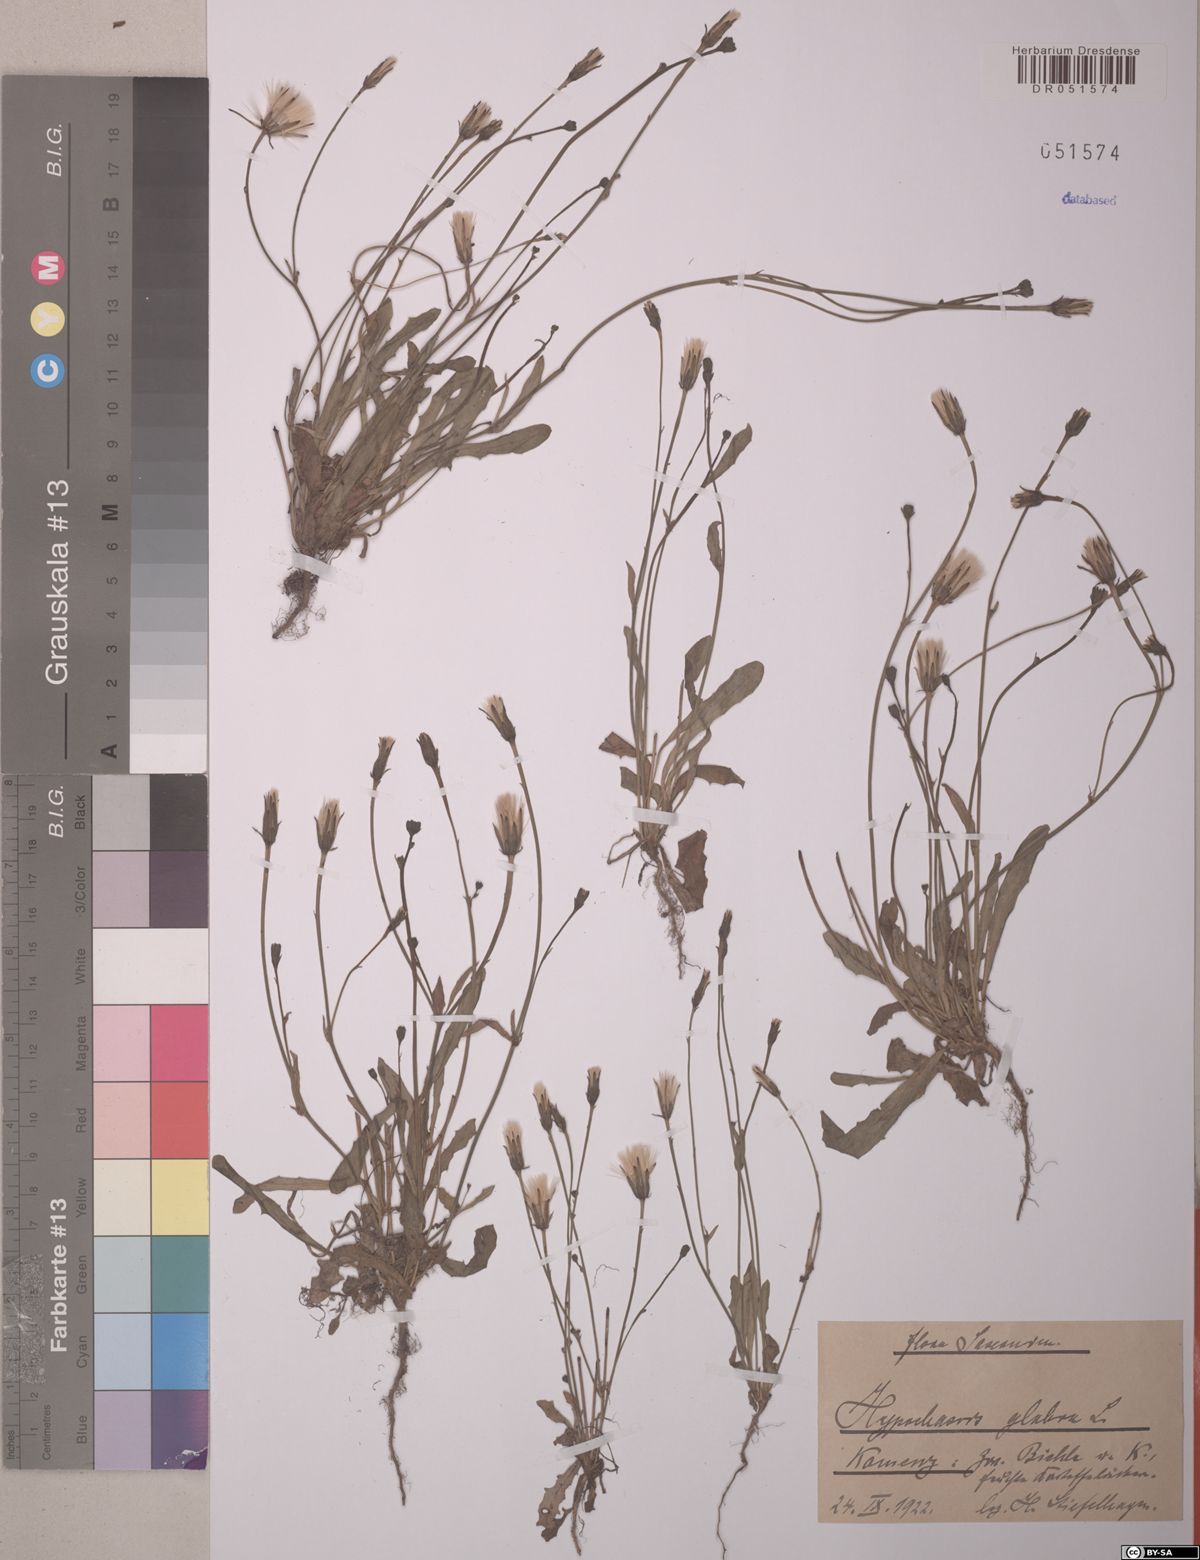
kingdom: Plantae
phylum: Tracheophyta
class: Magnoliopsida
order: Asterales
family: Asteraceae
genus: Hypochaeris
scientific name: Hypochaeris glabra
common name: Smooth catsear
